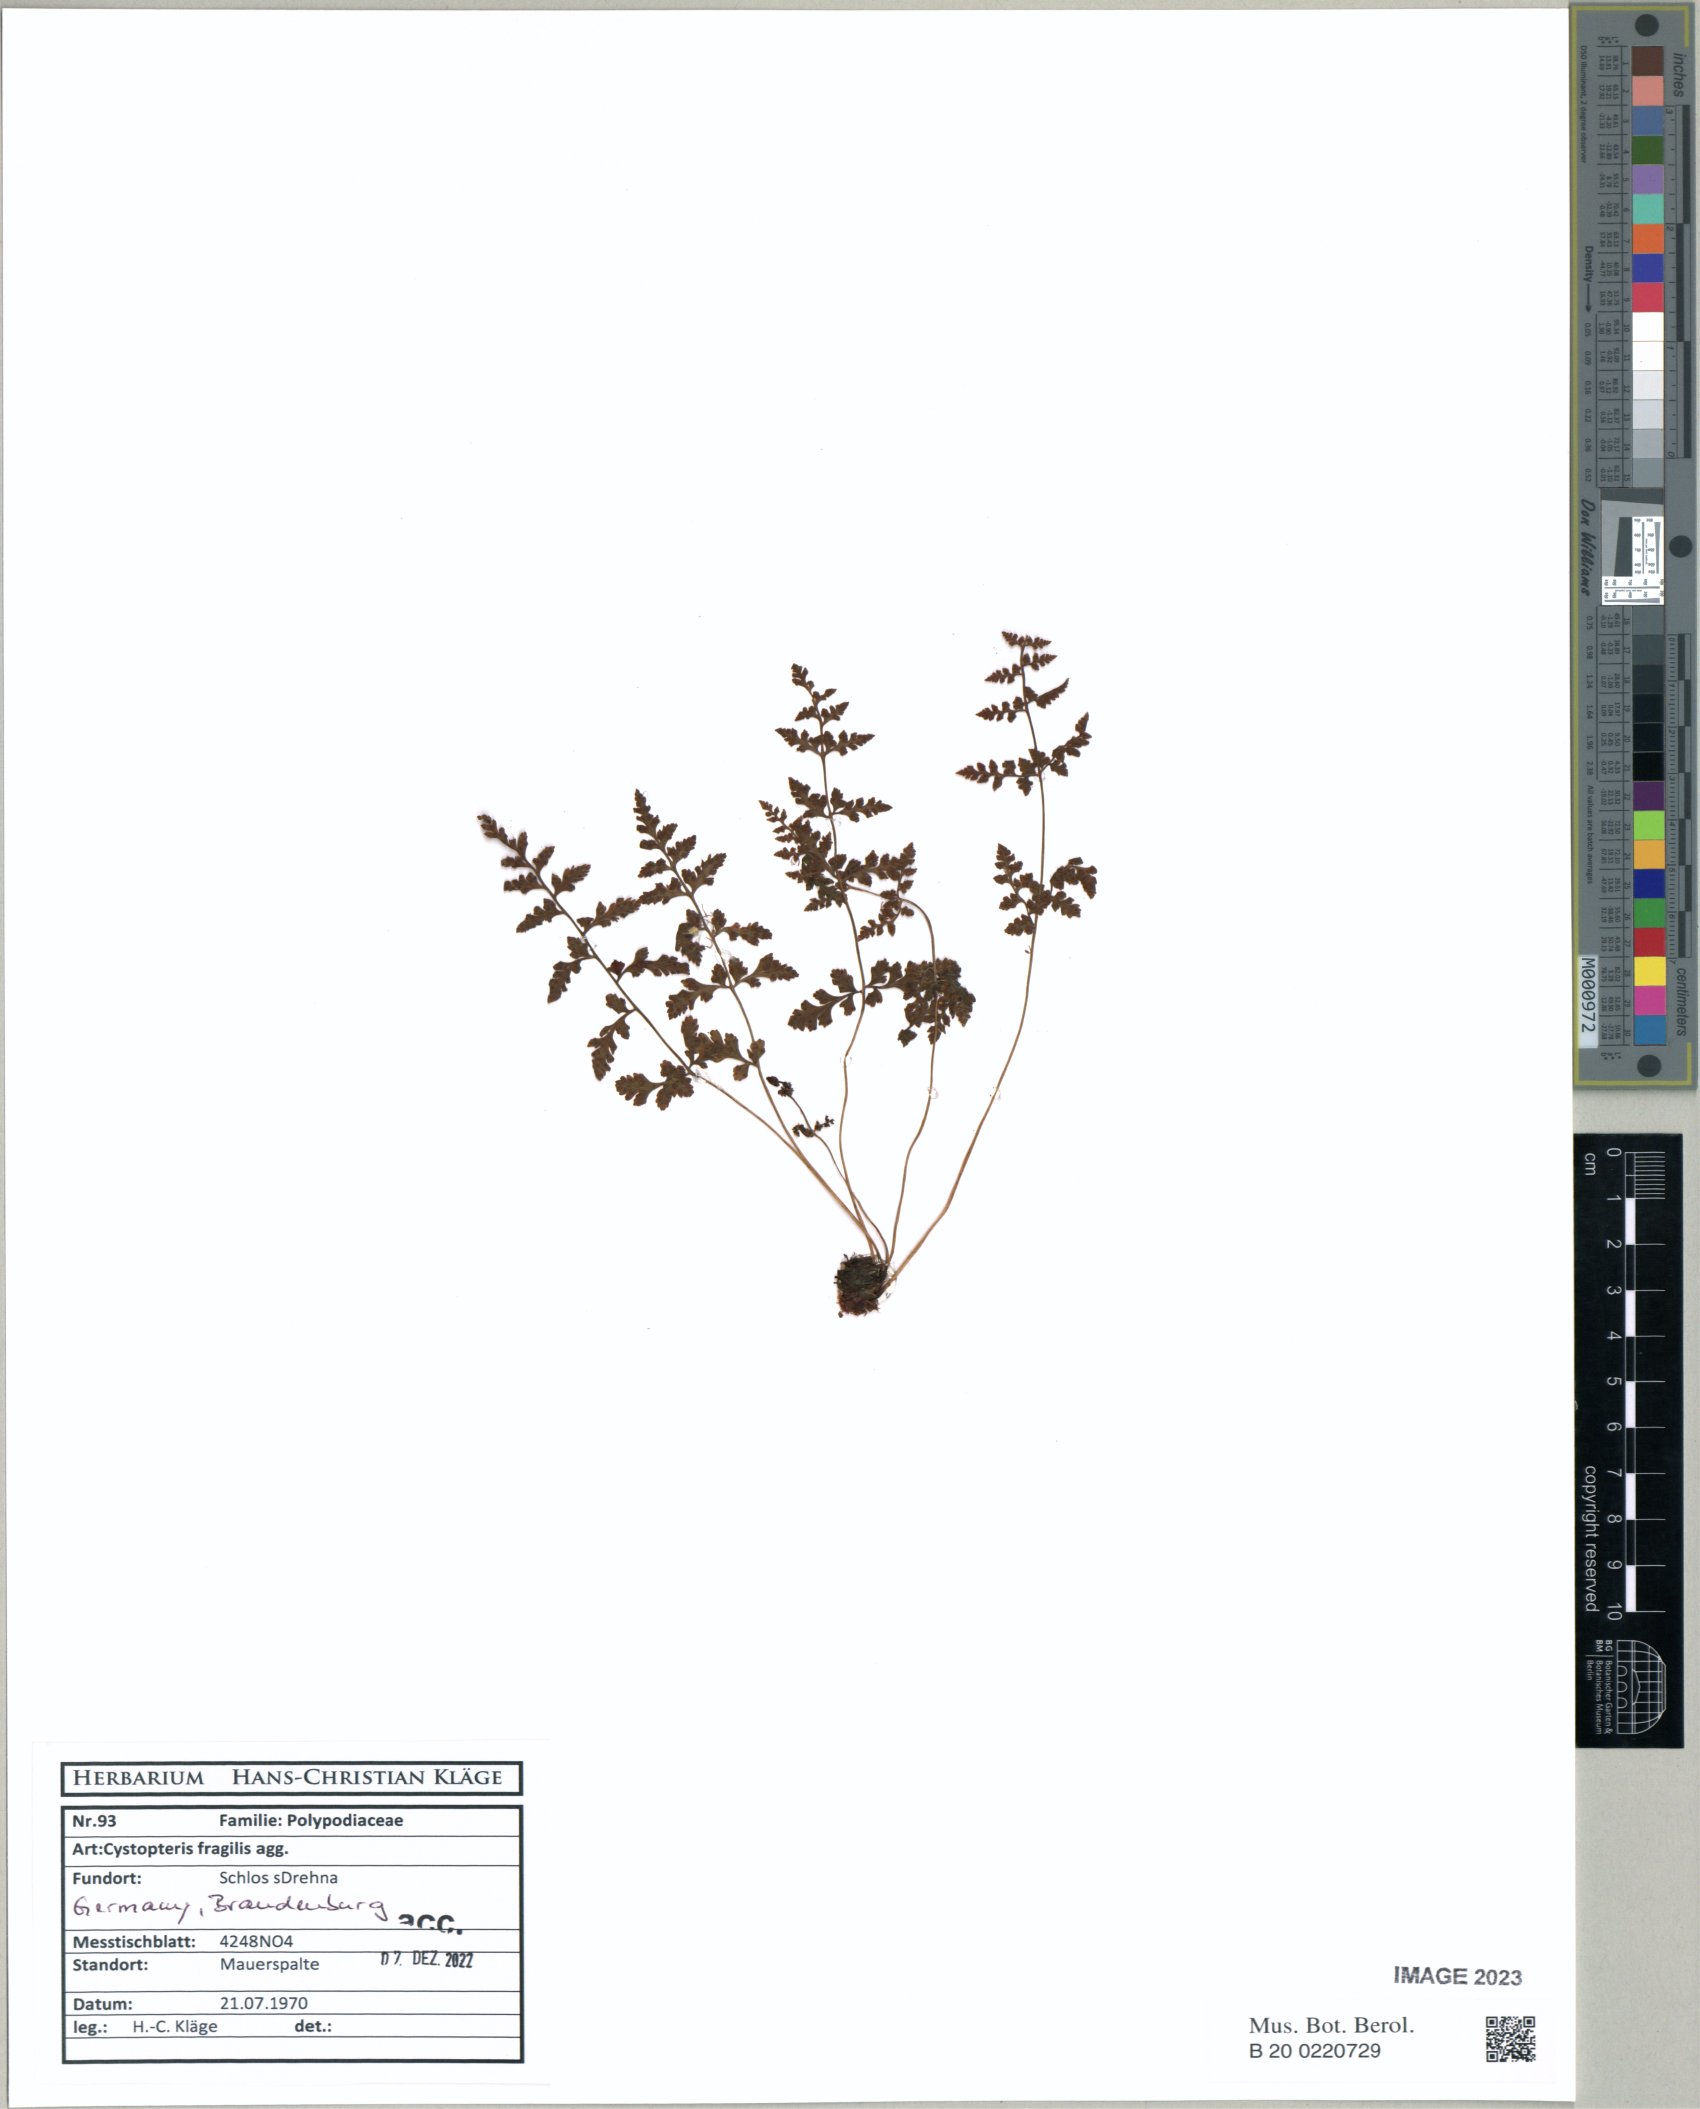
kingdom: Plantae
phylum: Tracheophyta
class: Polypodiopsida
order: Polypodiales
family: Cystopteridaceae
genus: Cystopteris
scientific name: Cystopteris fragilis
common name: Brittle bladder fern
